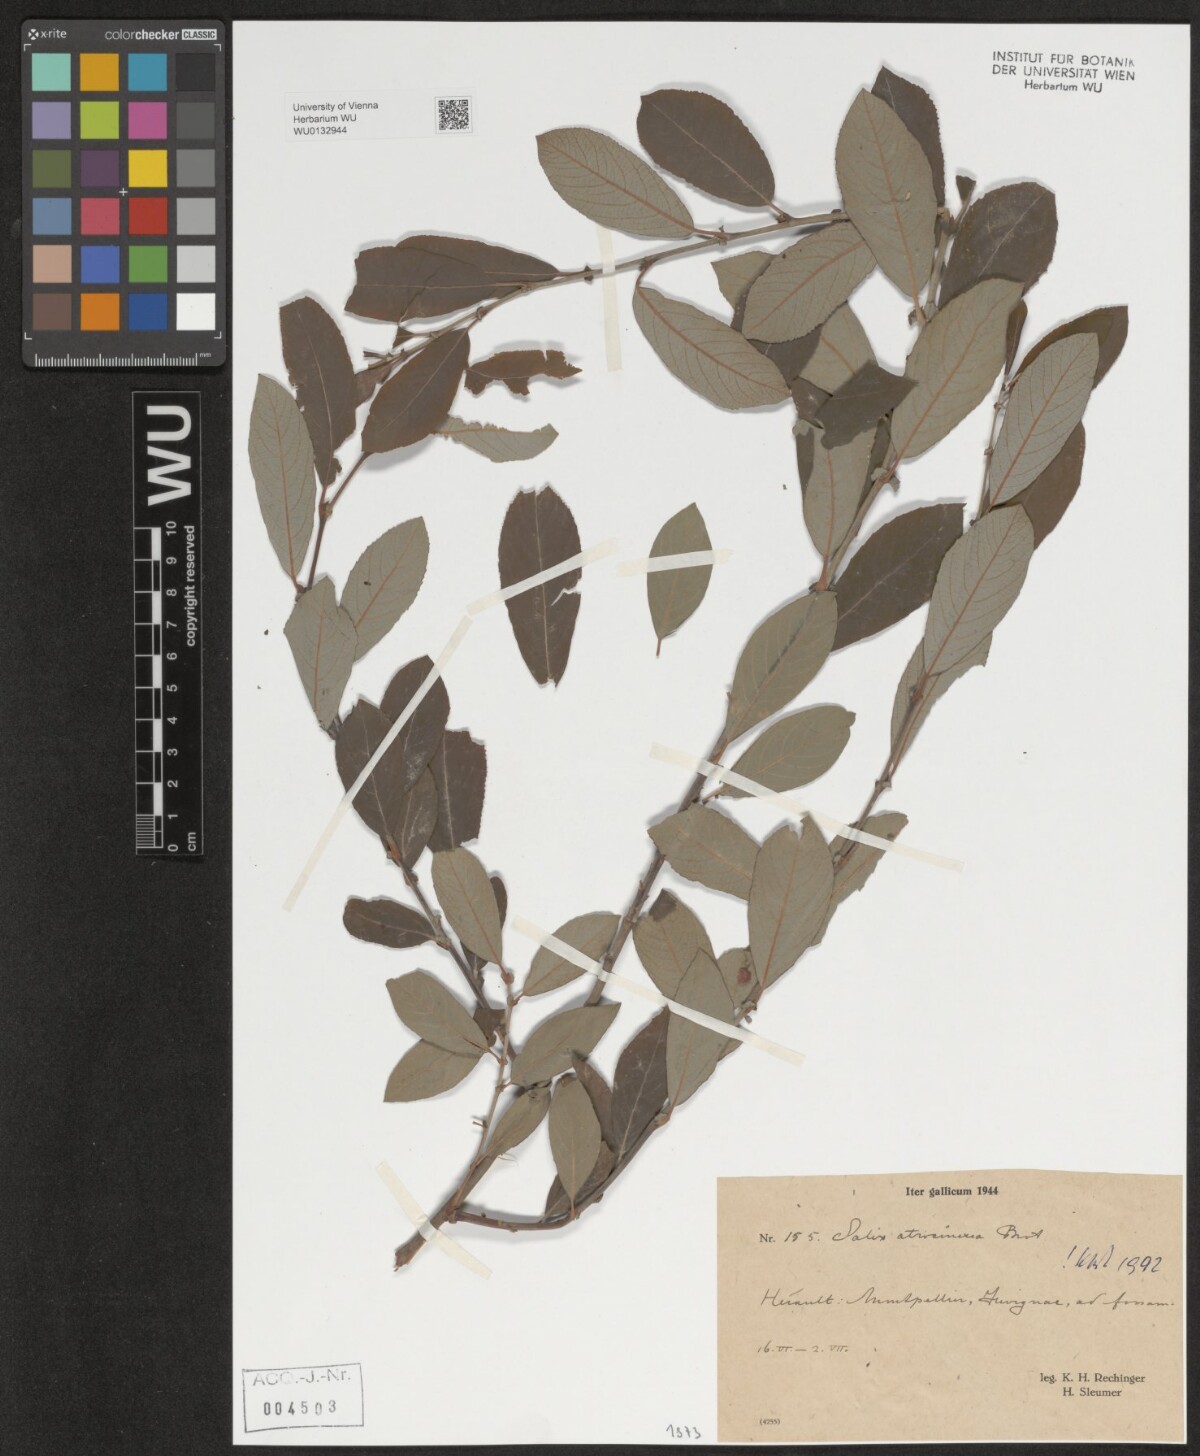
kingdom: Plantae
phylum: Tracheophyta
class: Magnoliopsida
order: Malpighiales
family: Salicaceae
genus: Salix
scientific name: Salix atrocinerea
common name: Rusty willow
